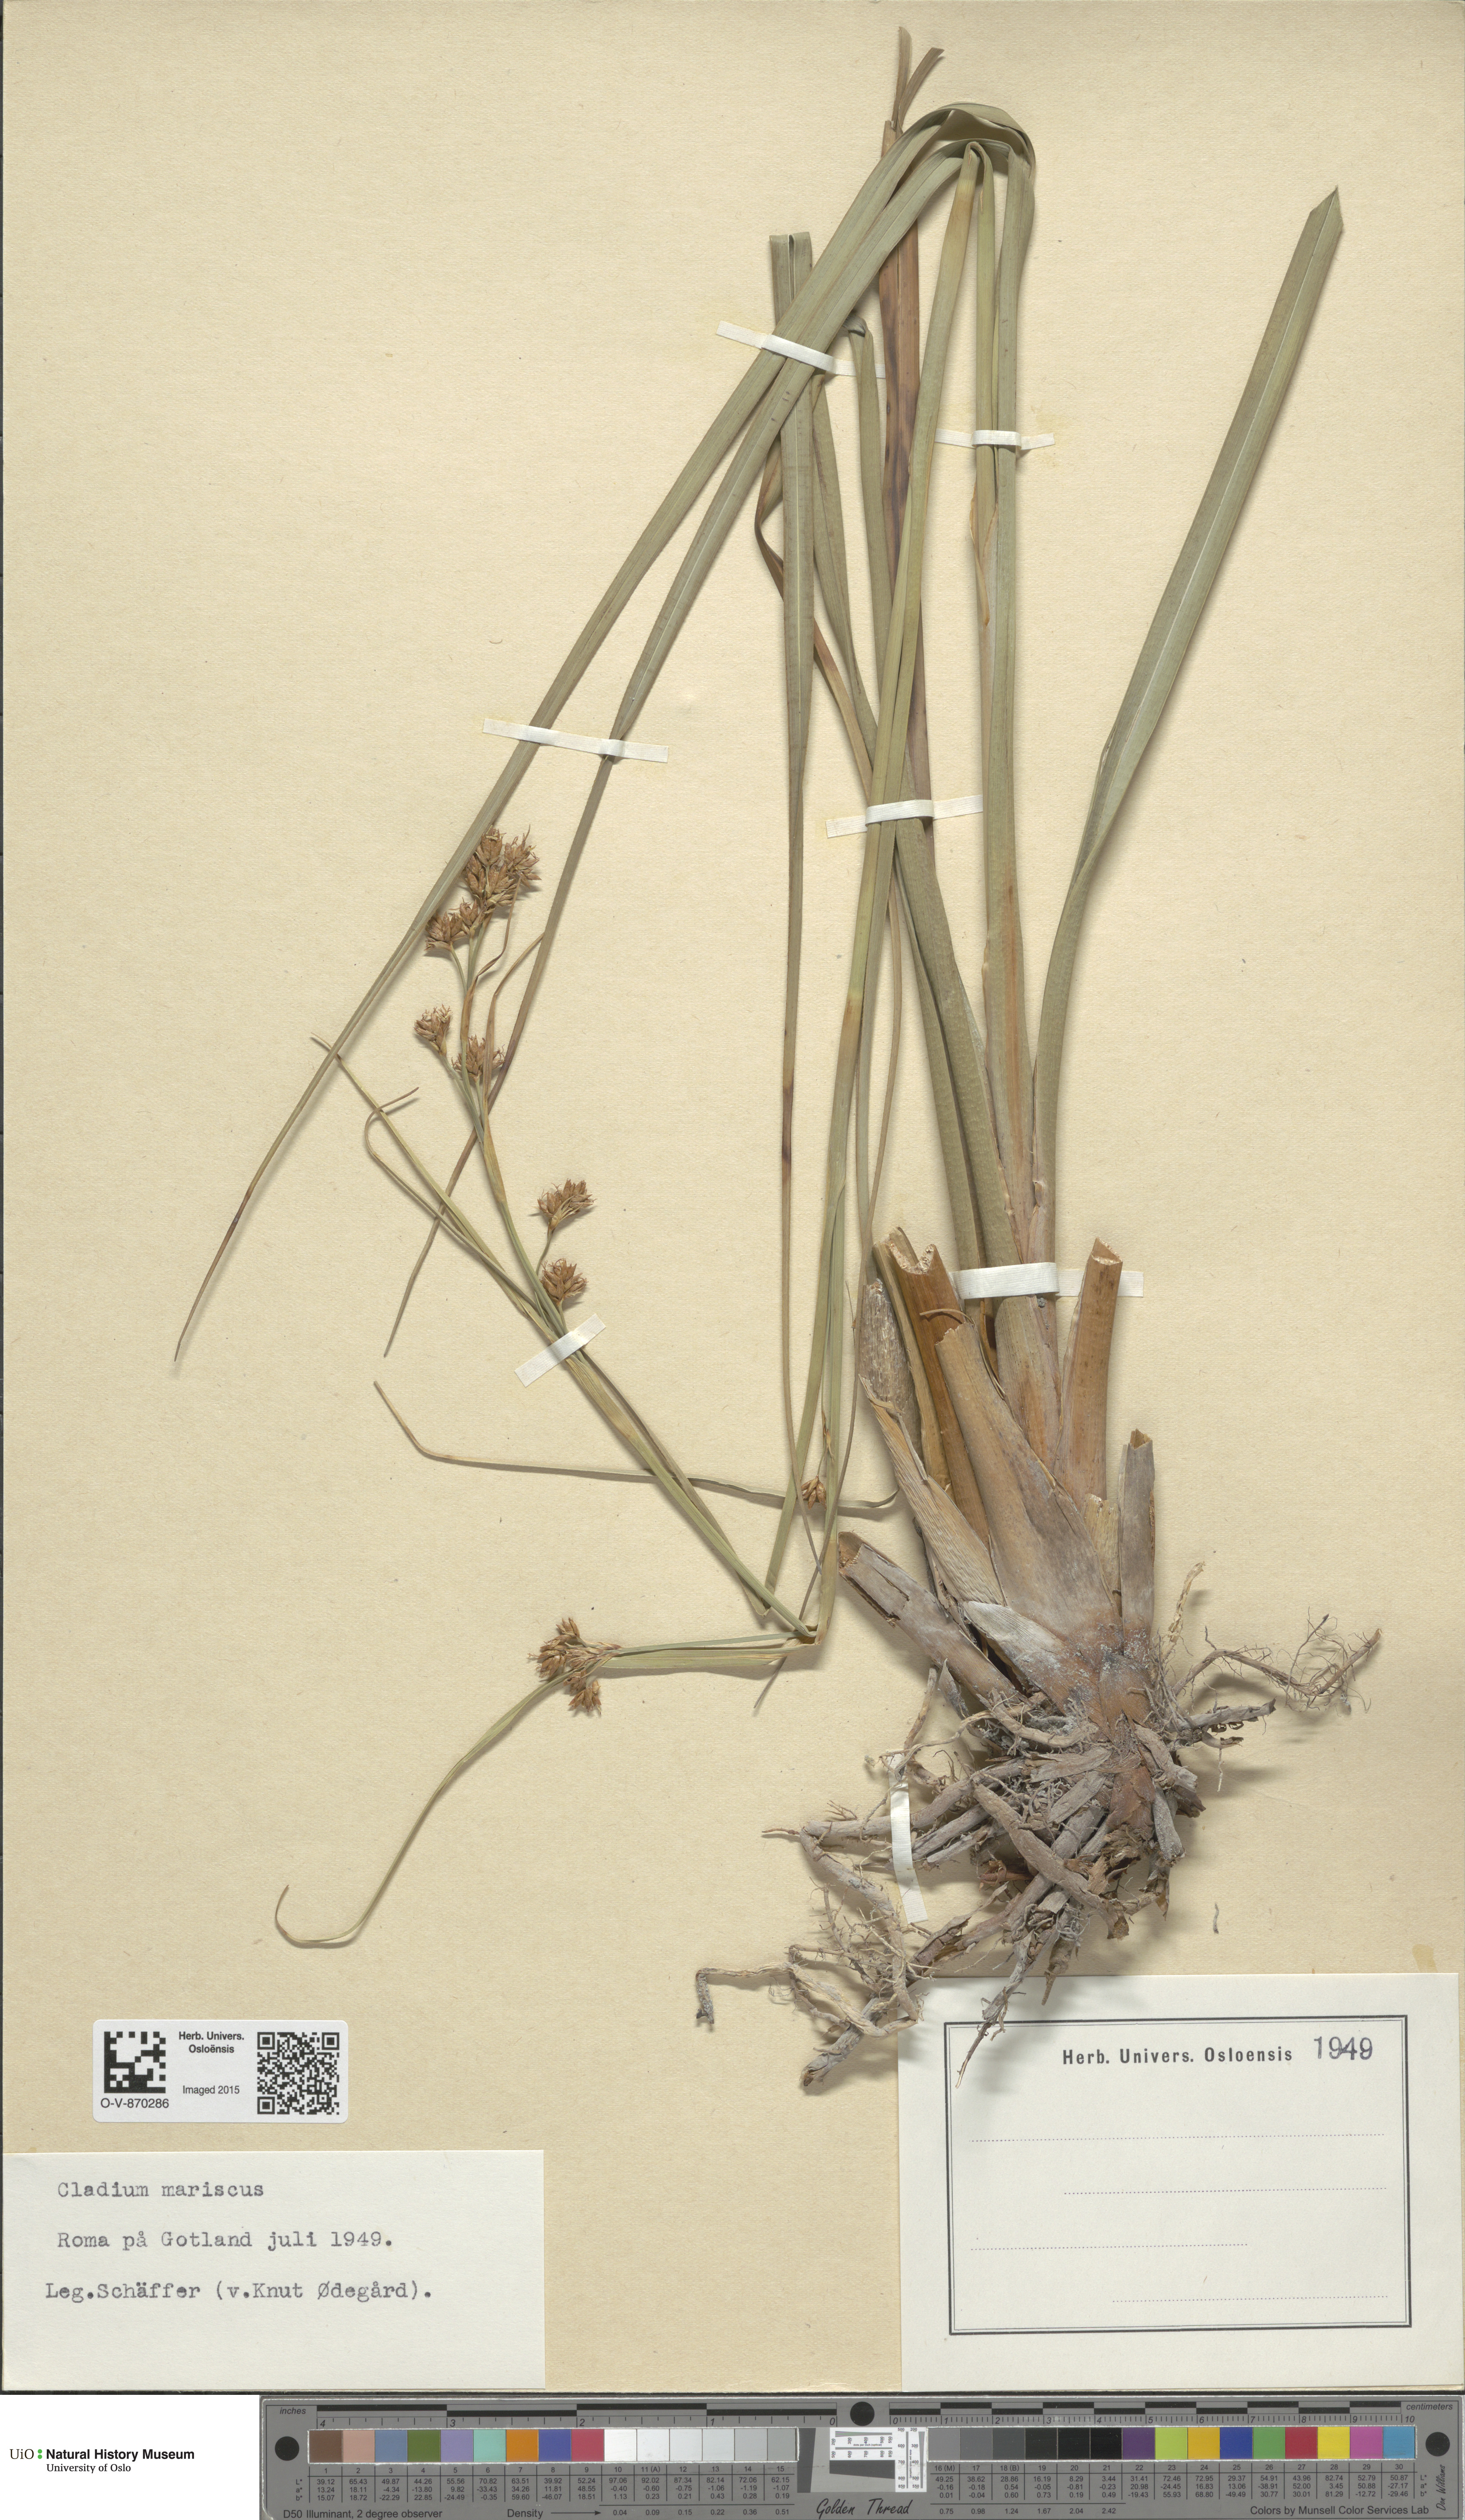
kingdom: Plantae
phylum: Tracheophyta
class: Liliopsida
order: Poales
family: Cyperaceae
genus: Cladium
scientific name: Cladium mariscus
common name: Great fen-sedge
